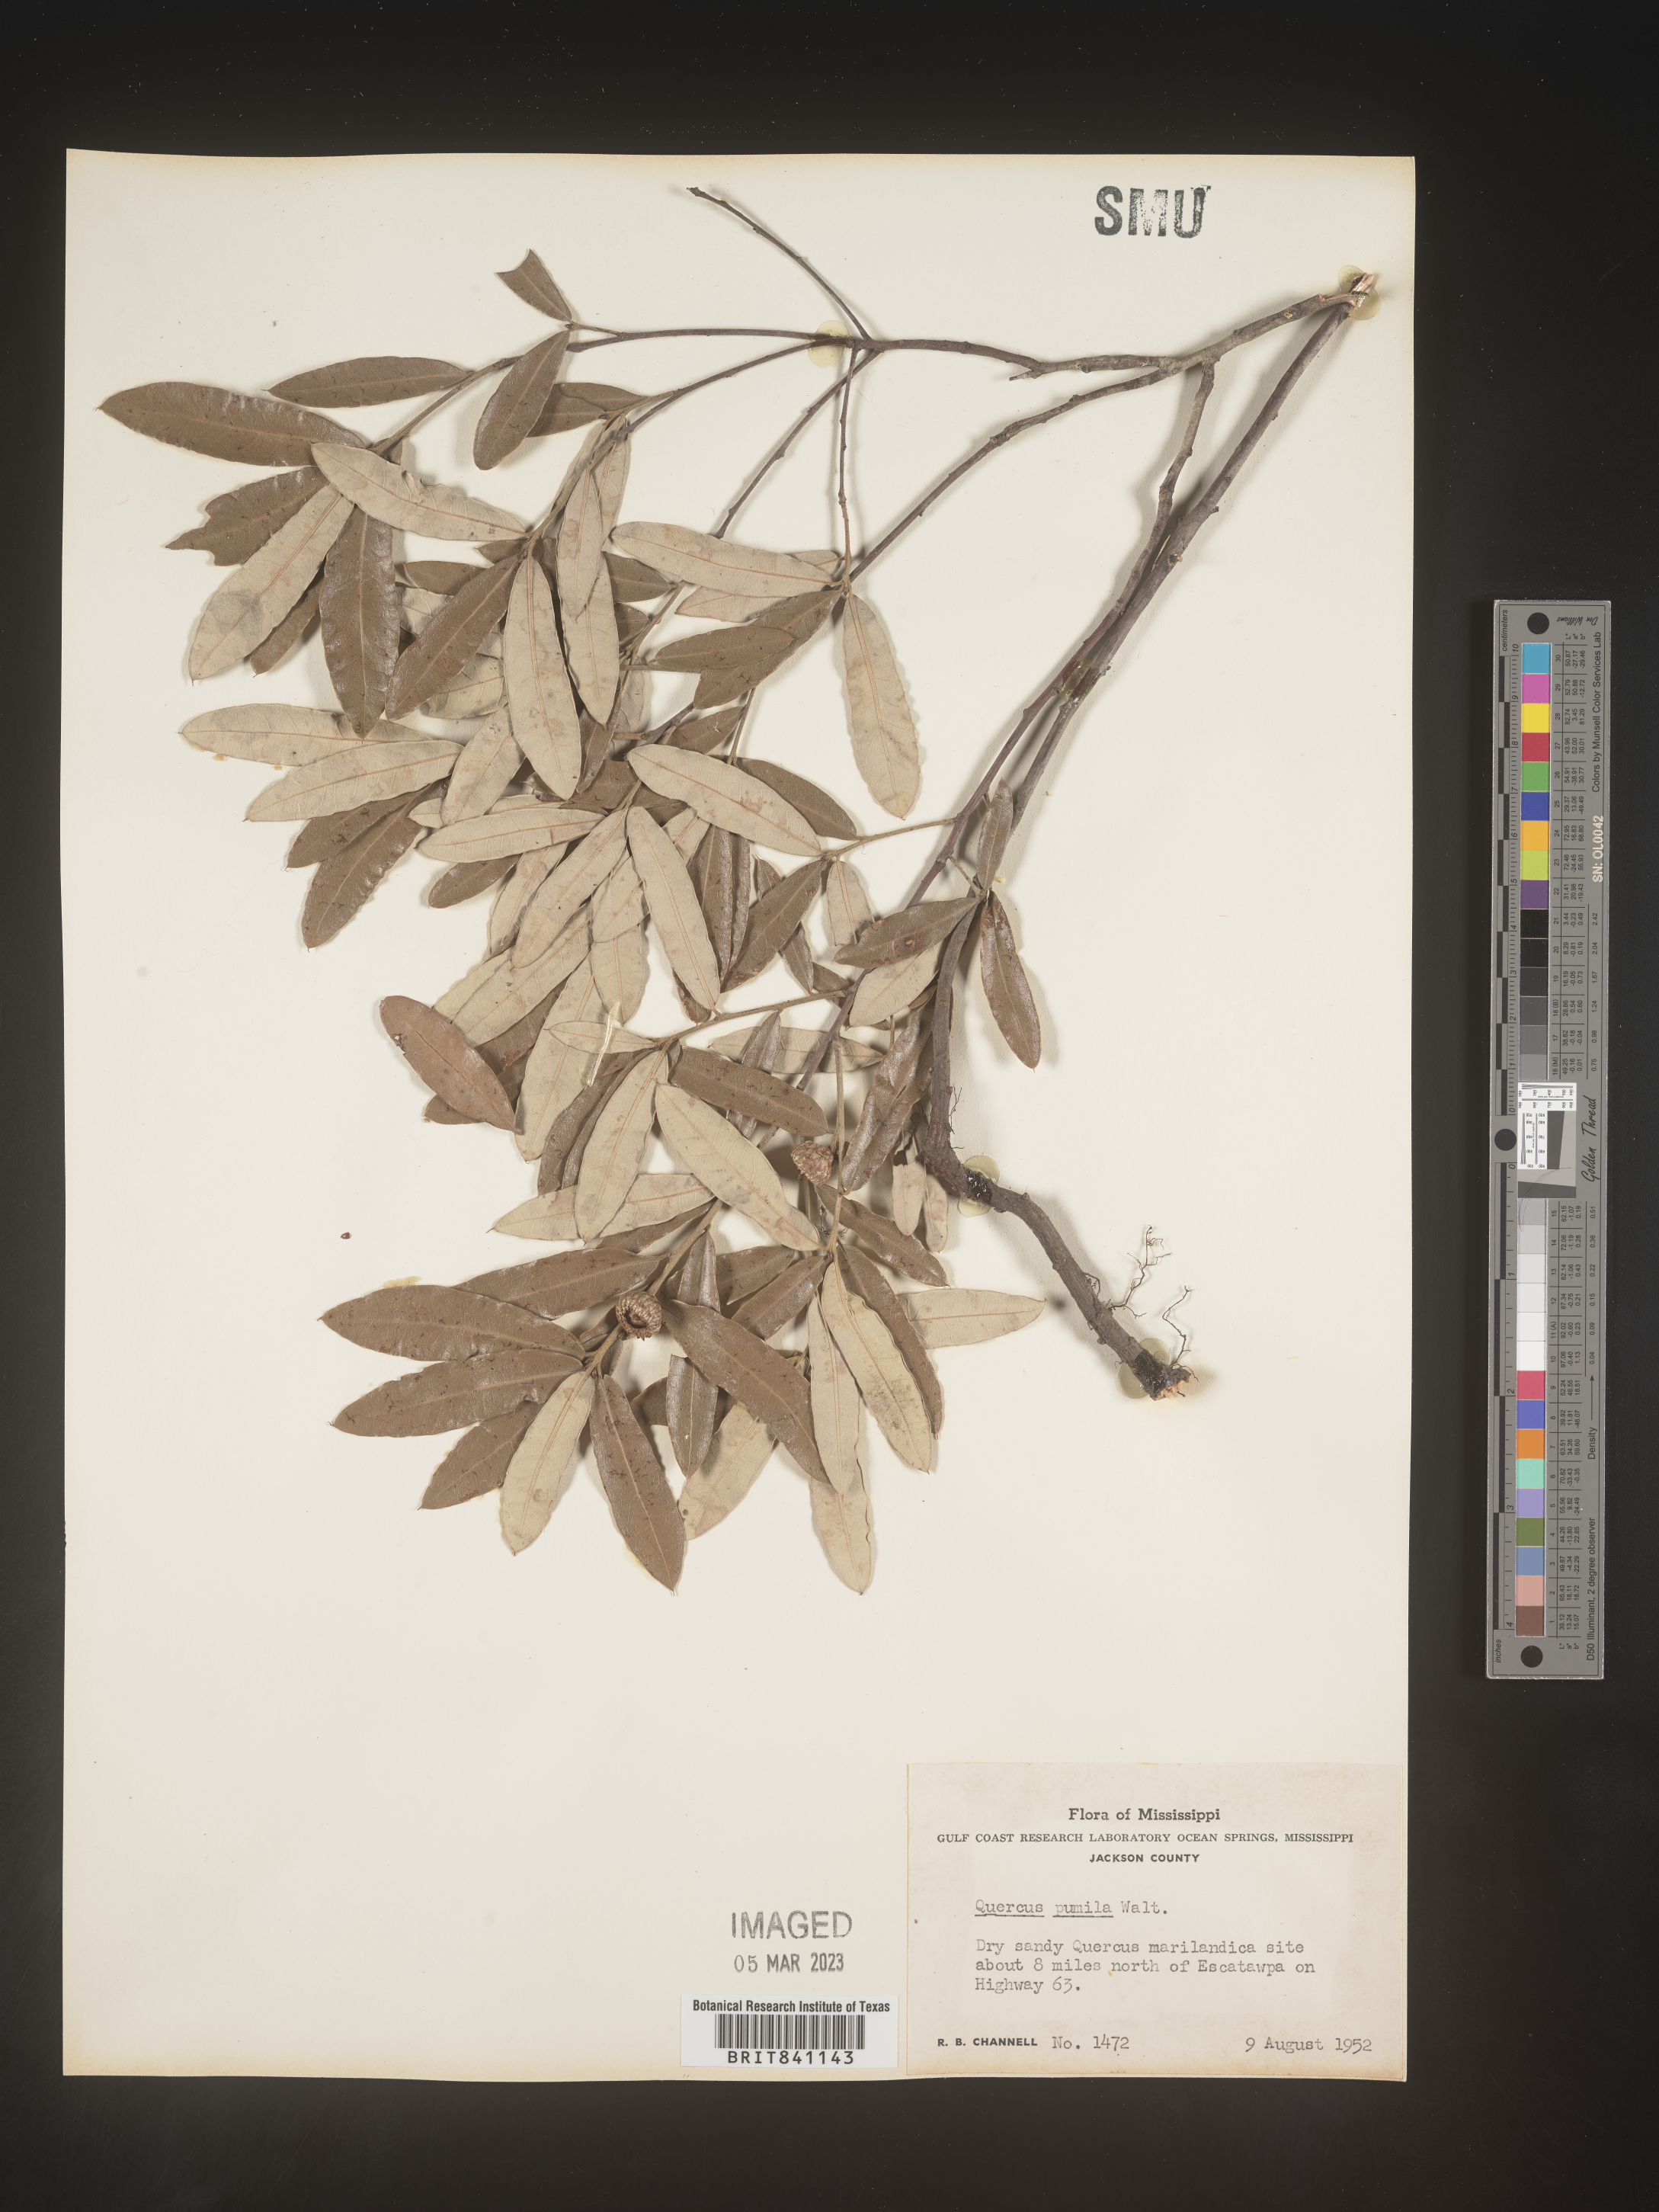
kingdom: Plantae
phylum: Tracheophyta
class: Magnoliopsida
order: Fagales
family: Fagaceae
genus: Quercus
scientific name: Quercus pumila
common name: Runner oak
